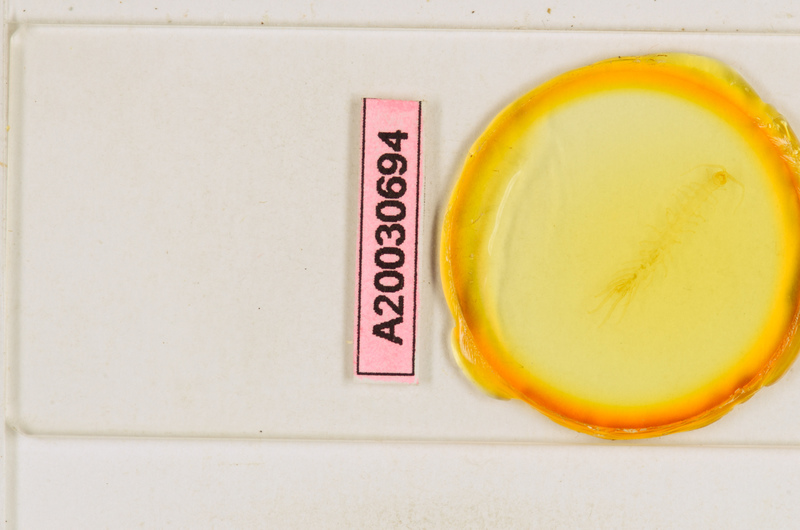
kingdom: Animalia
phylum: Arthropoda
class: Chilopoda
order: Lithobiomorpha
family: Lithobiidae
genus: Lithobius
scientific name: Lithobius
